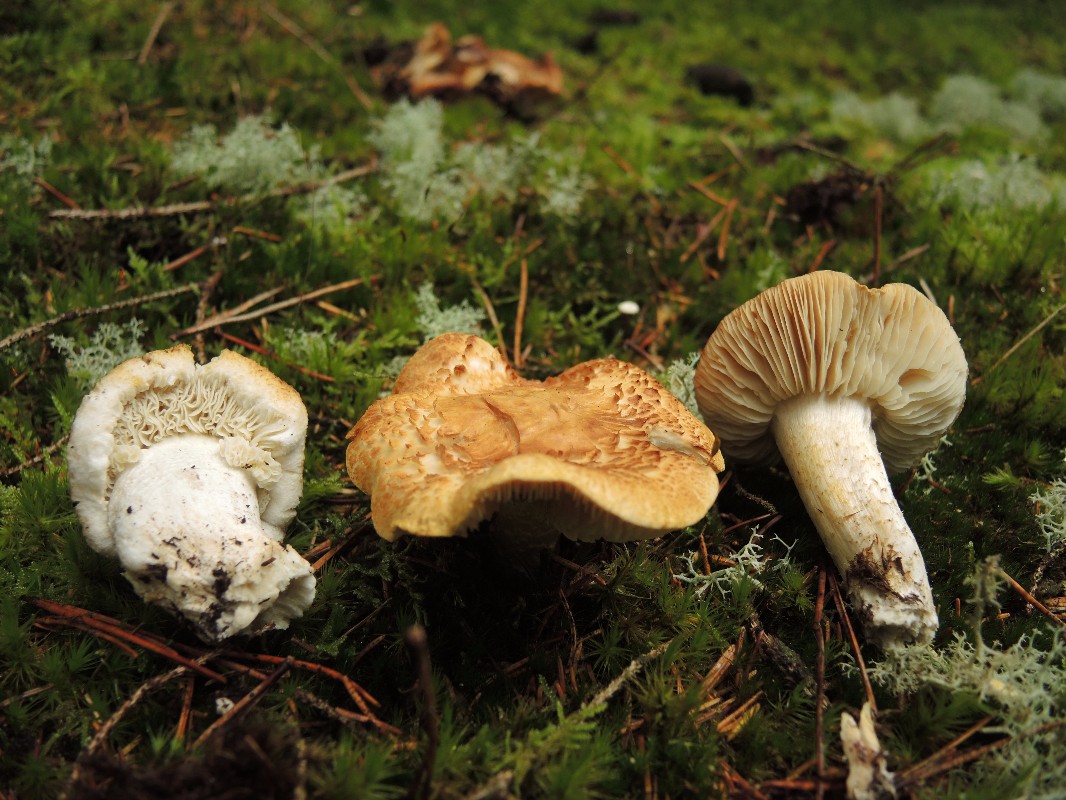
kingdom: Fungi
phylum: Basidiomycota
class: Agaricomycetes
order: Agaricales
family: Tricholomataceae
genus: Tricholoma
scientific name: Tricholoma apium
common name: suppe-ridderhat
